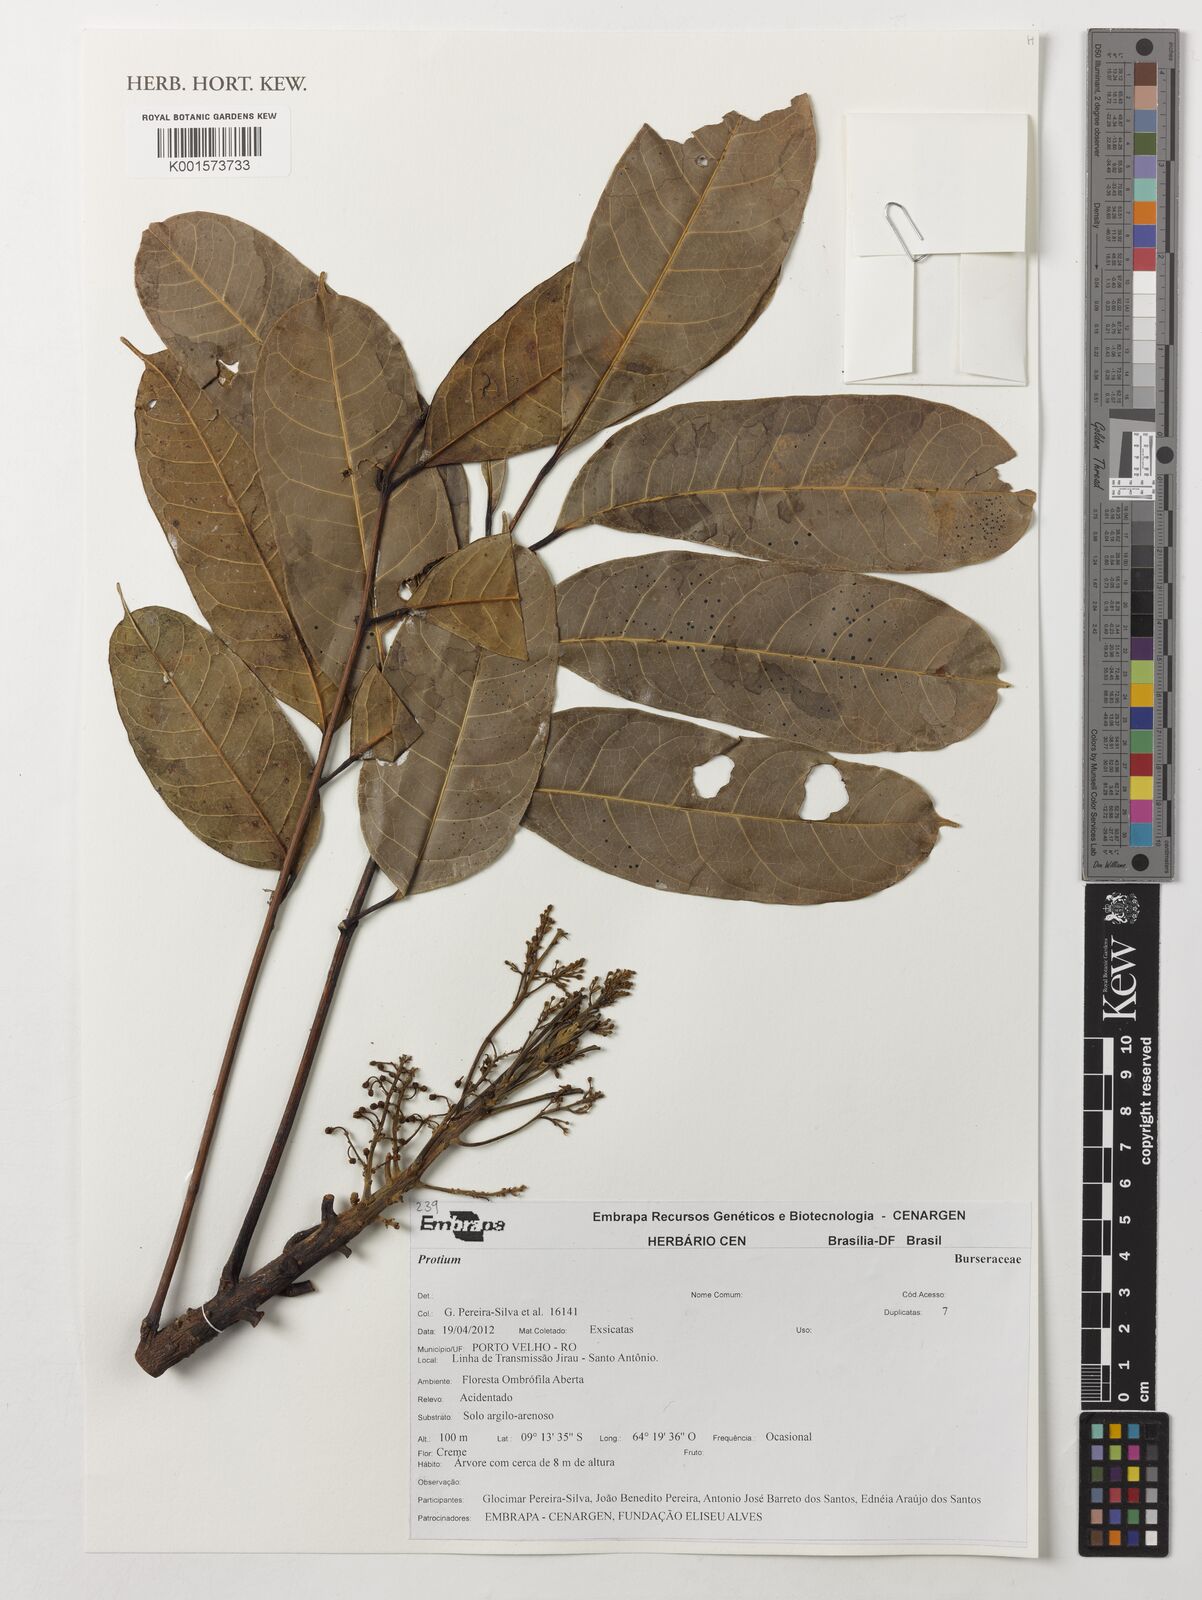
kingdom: Plantae
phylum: Tracheophyta
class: Magnoliopsida
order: Sapindales
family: Burseraceae
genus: Protium
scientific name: Protium
